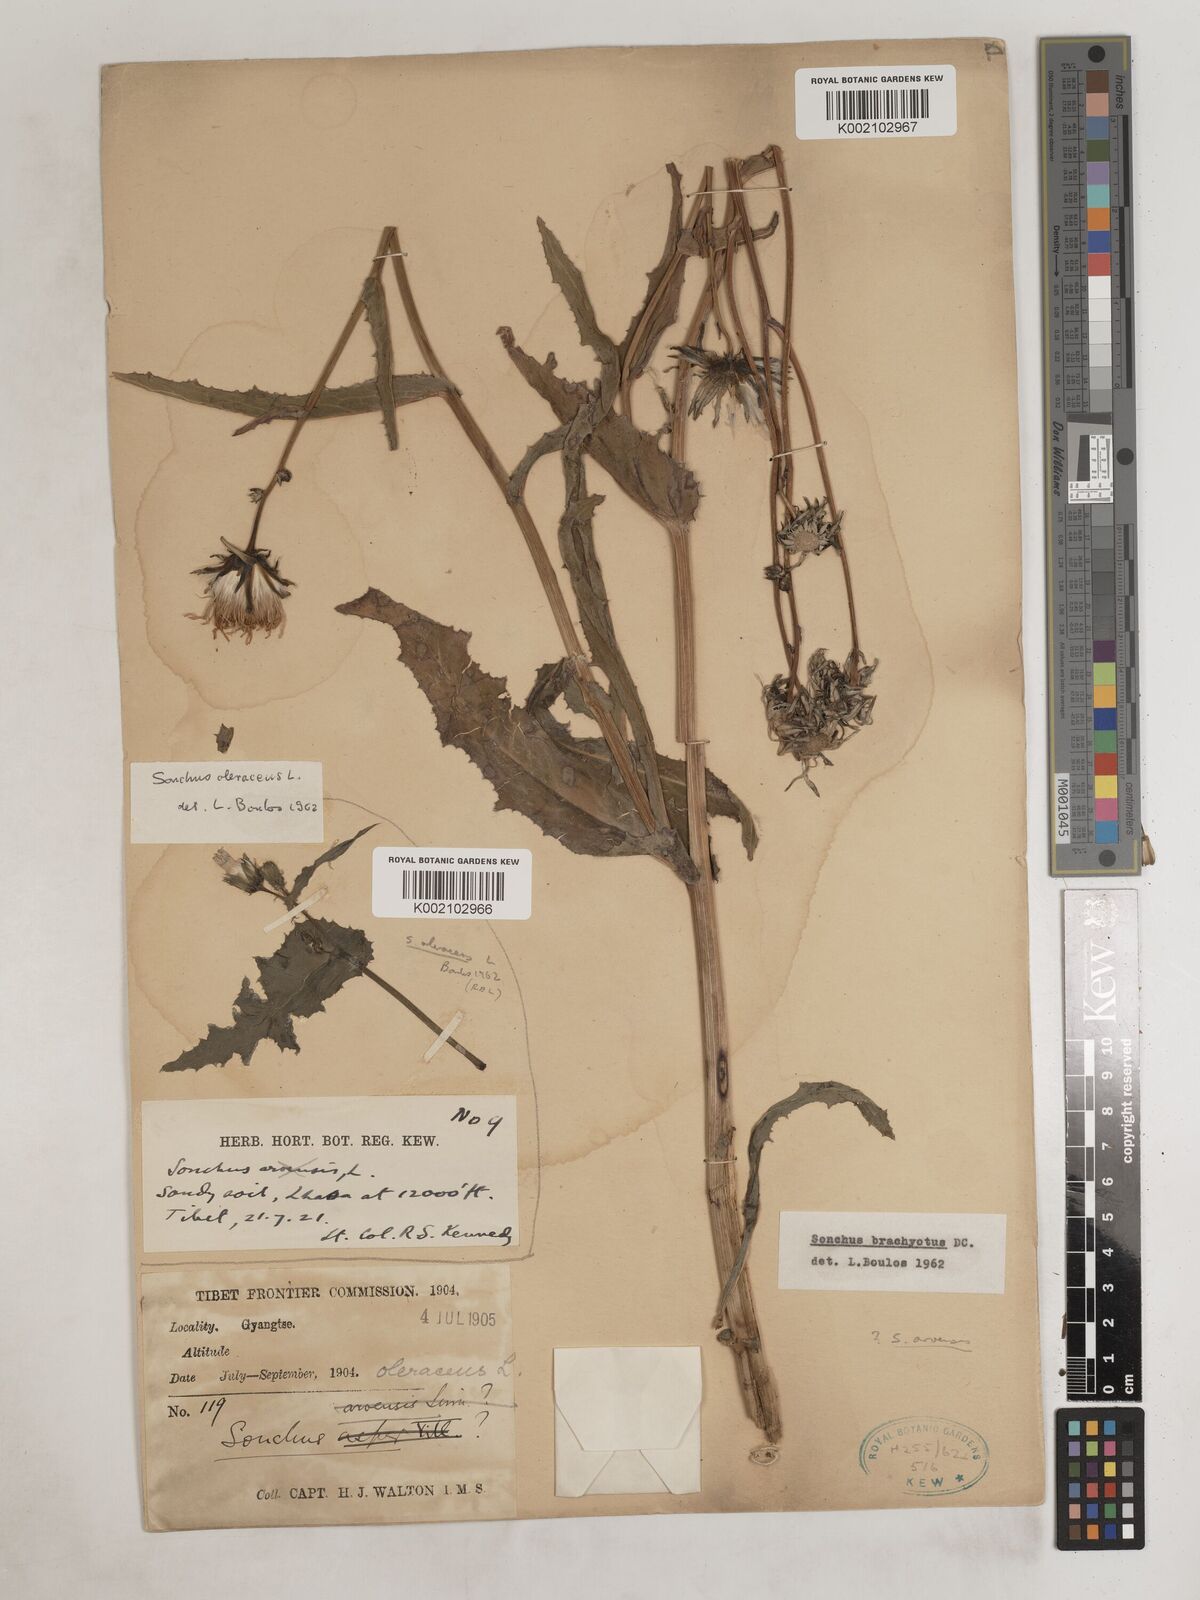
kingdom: Plantae
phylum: Tracheophyta
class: Magnoliopsida
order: Asterales
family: Asteraceae
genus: Sonchus
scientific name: Sonchus arvensis
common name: Perennial sow-thistle
